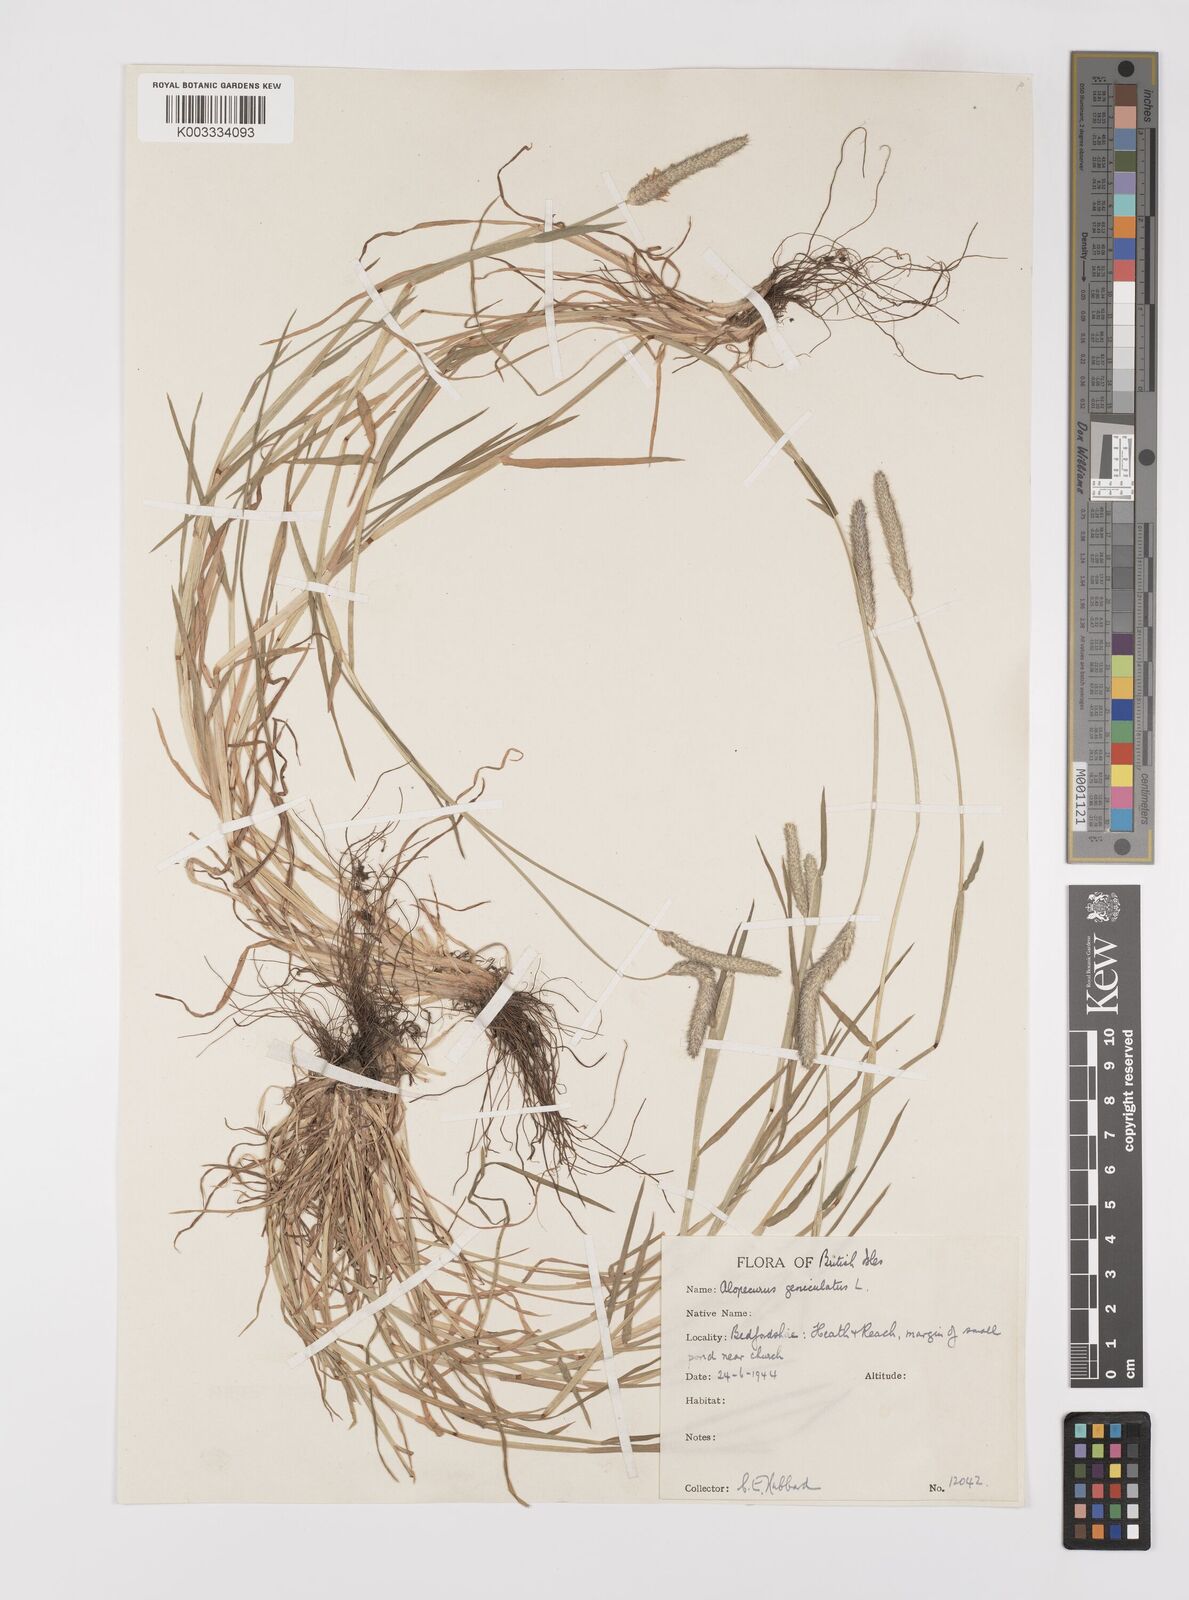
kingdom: Plantae
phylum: Tracheophyta
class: Liliopsida
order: Poales
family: Poaceae
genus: Alopecurus
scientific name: Alopecurus geniculatus
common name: Water foxtail
